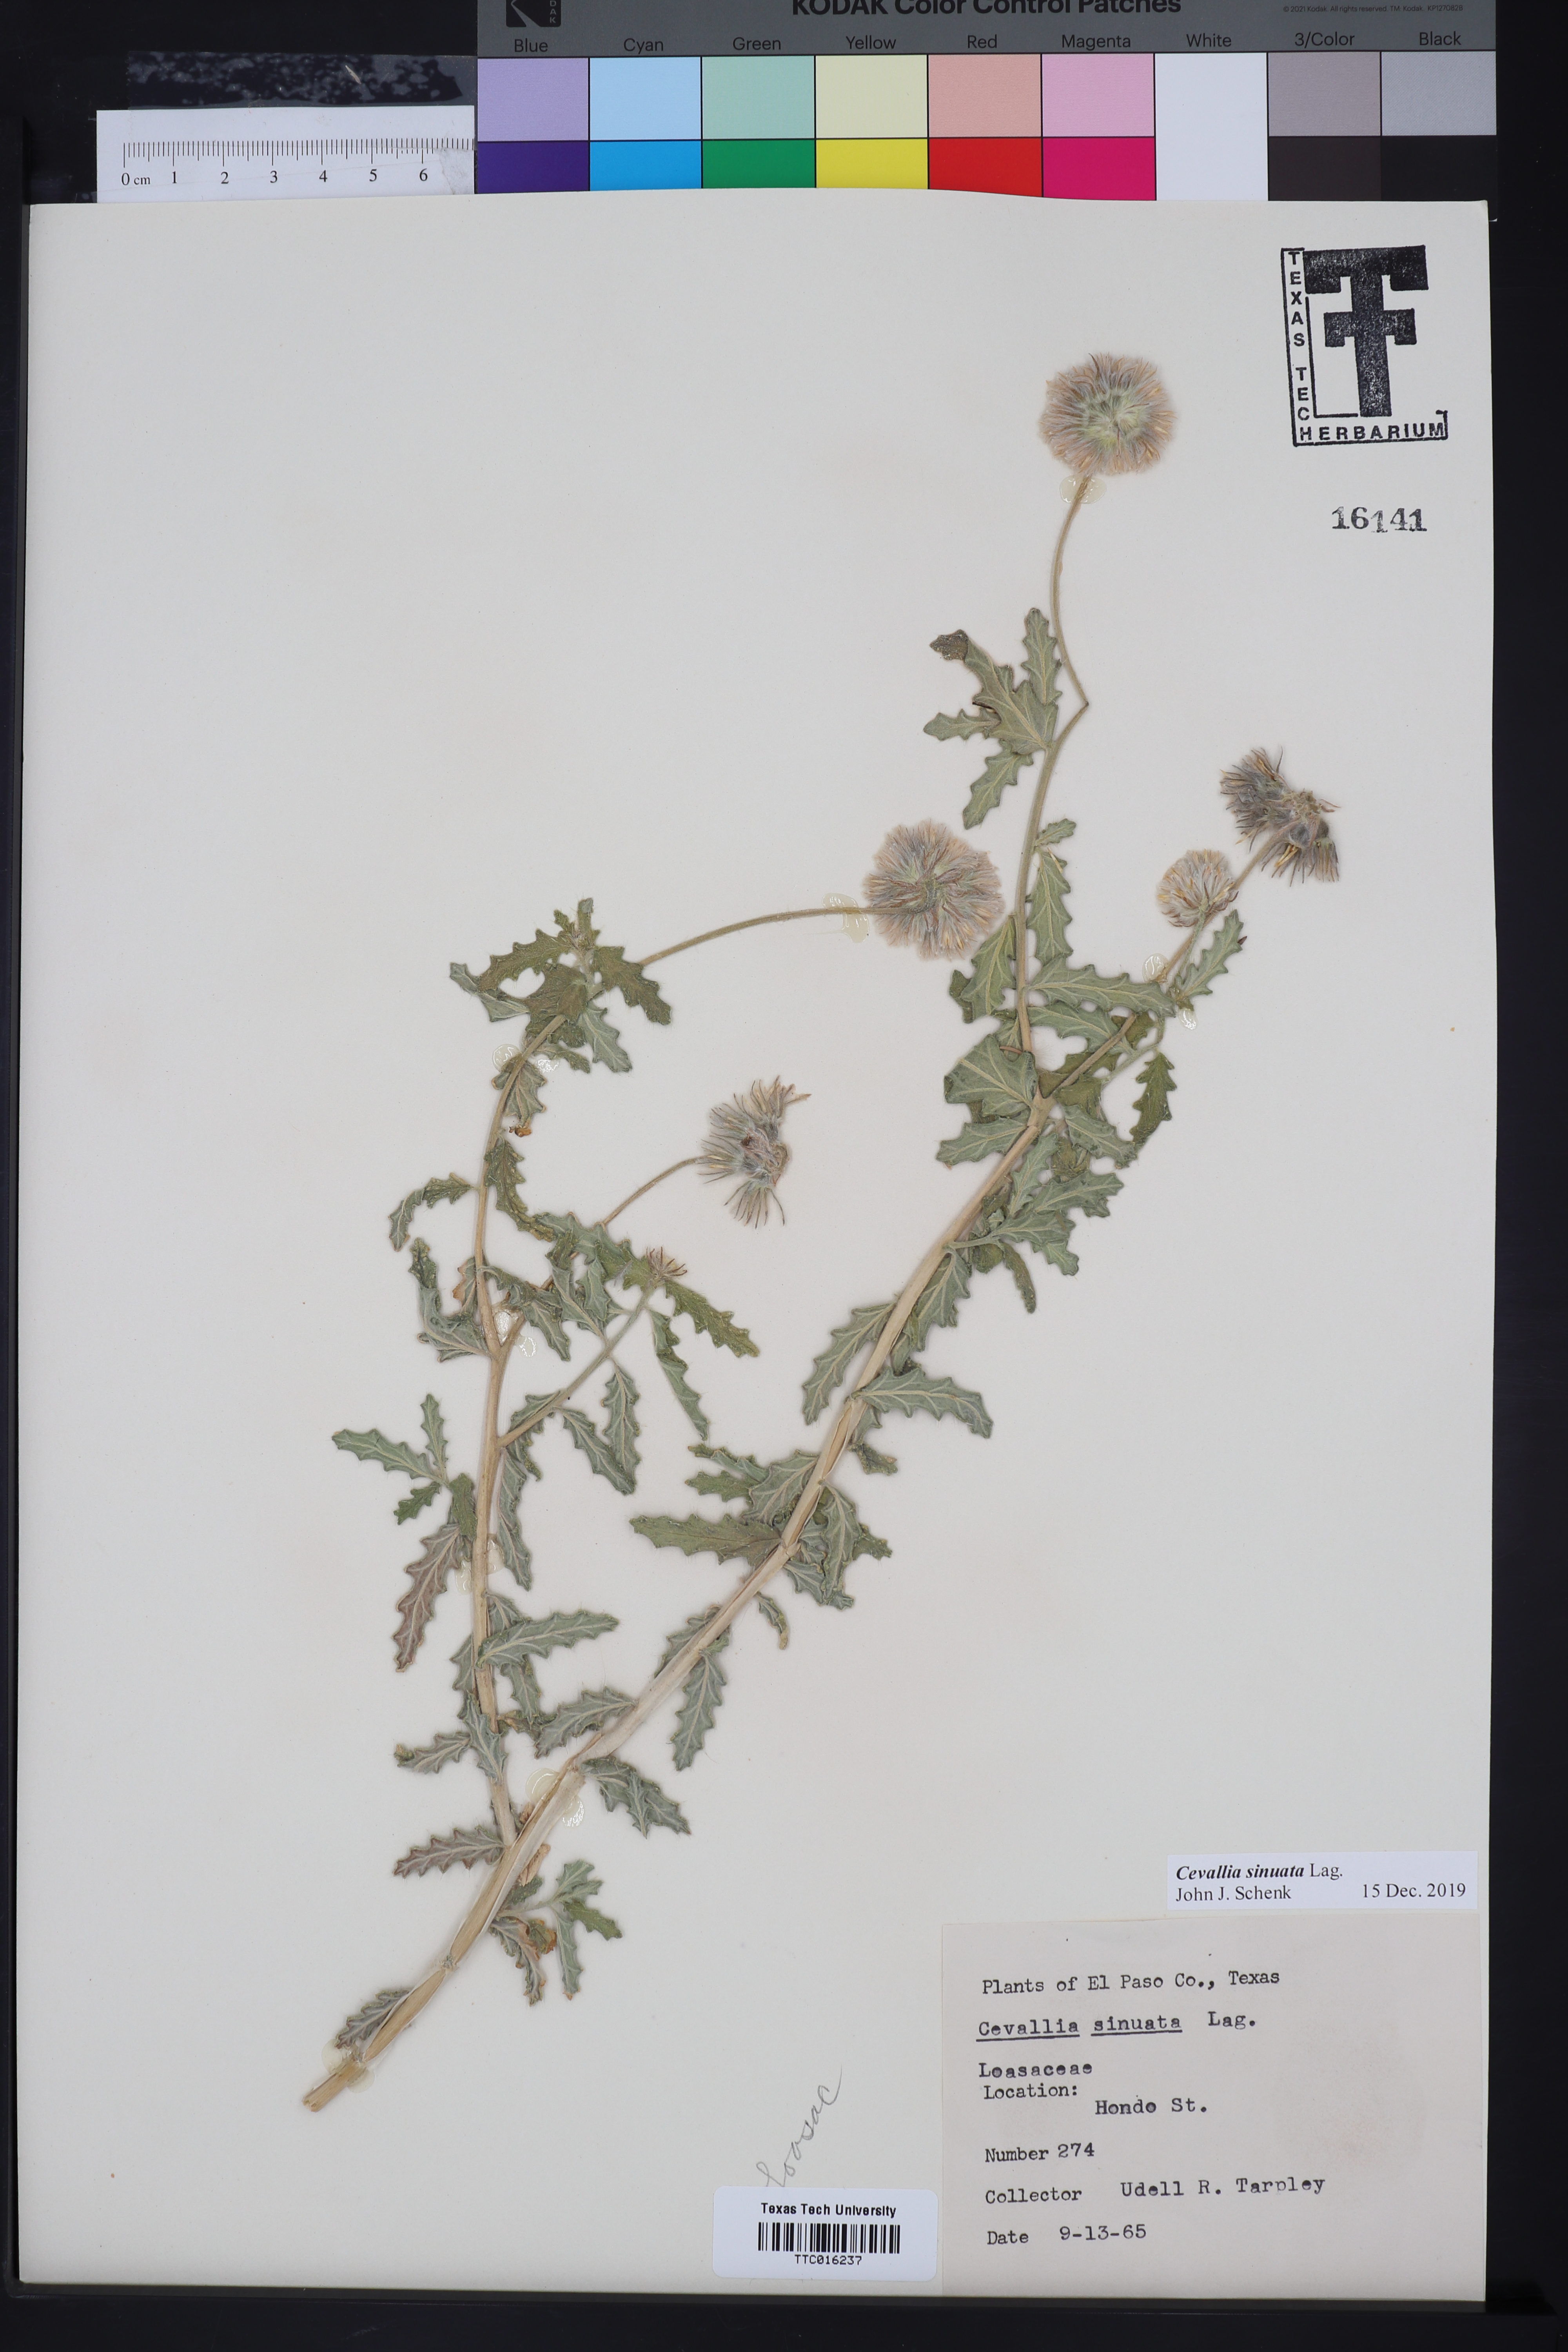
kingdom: Plantae
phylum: Tracheophyta
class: Magnoliopsida
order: Cornales
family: Loasaceae
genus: Cevallia
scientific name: Cevallia sinuata
